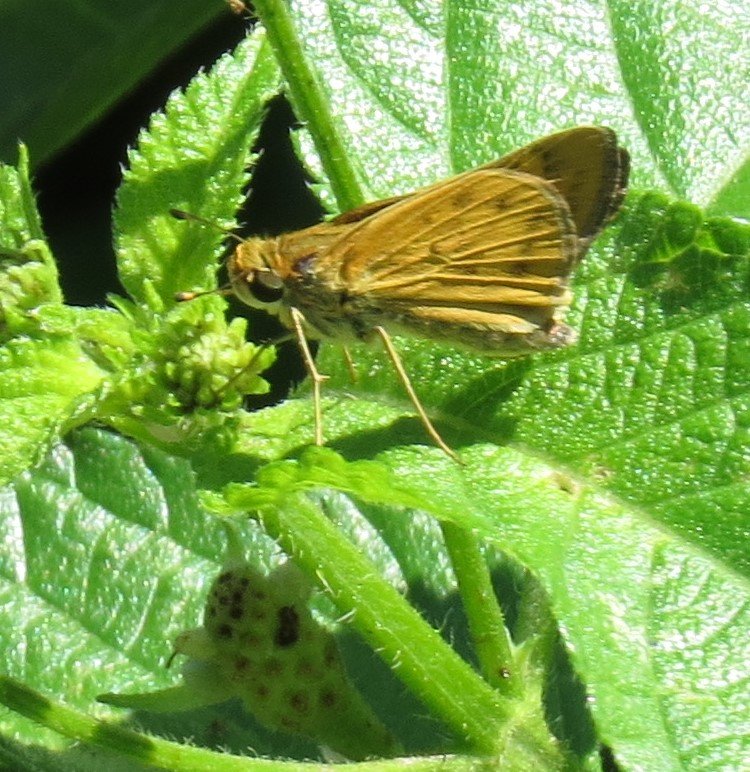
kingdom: Animalia
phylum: Arthropoda
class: Insecta
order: Lepidoptera
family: Hesperiidae
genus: Hylephila
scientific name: Hylephila phyleus
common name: Fiery Skipper
